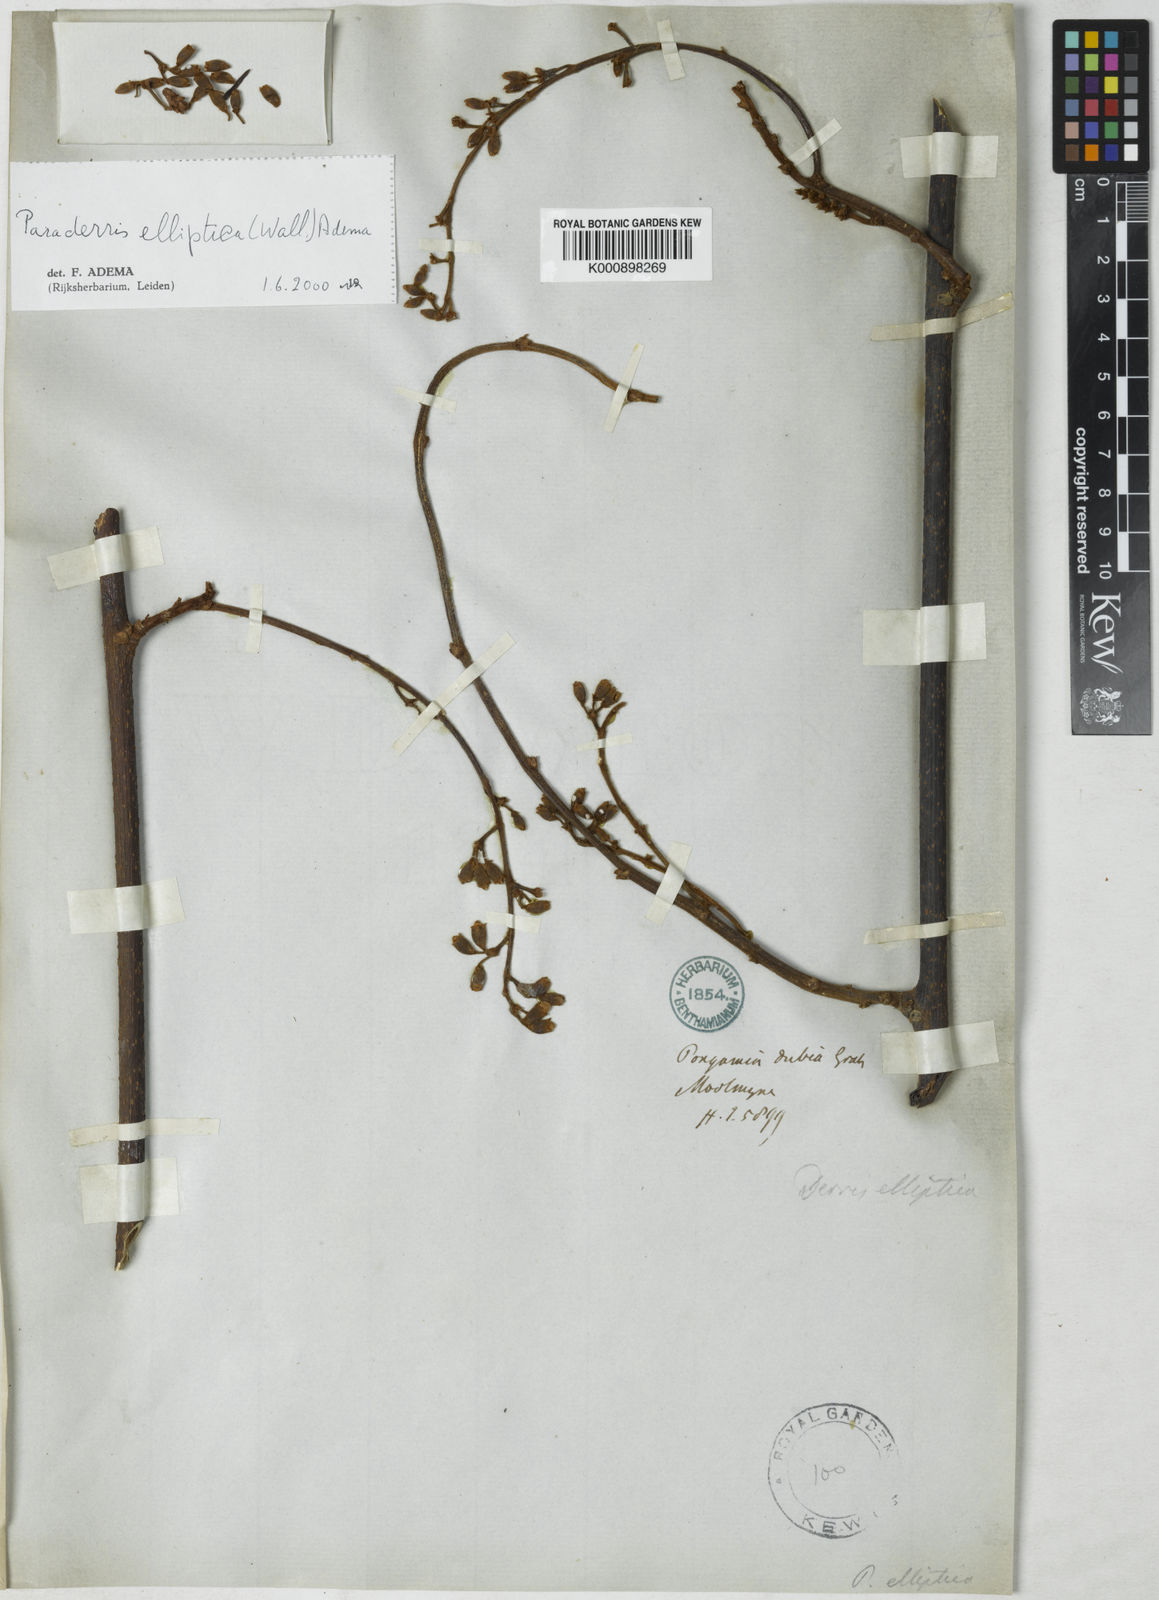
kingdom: Plantae
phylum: Tracheophyta
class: Magnoliopsida
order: Fabales
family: Fabaceae
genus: Derris
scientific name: Derris elliptica
